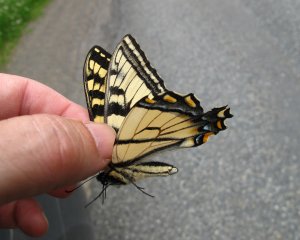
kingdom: Animalia
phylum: Arthropoda
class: Insecta
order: Lepidoptera
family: Papilionidae
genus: Pterourus
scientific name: Pterourus canadensis
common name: Canadian Tiger Swallowtail
